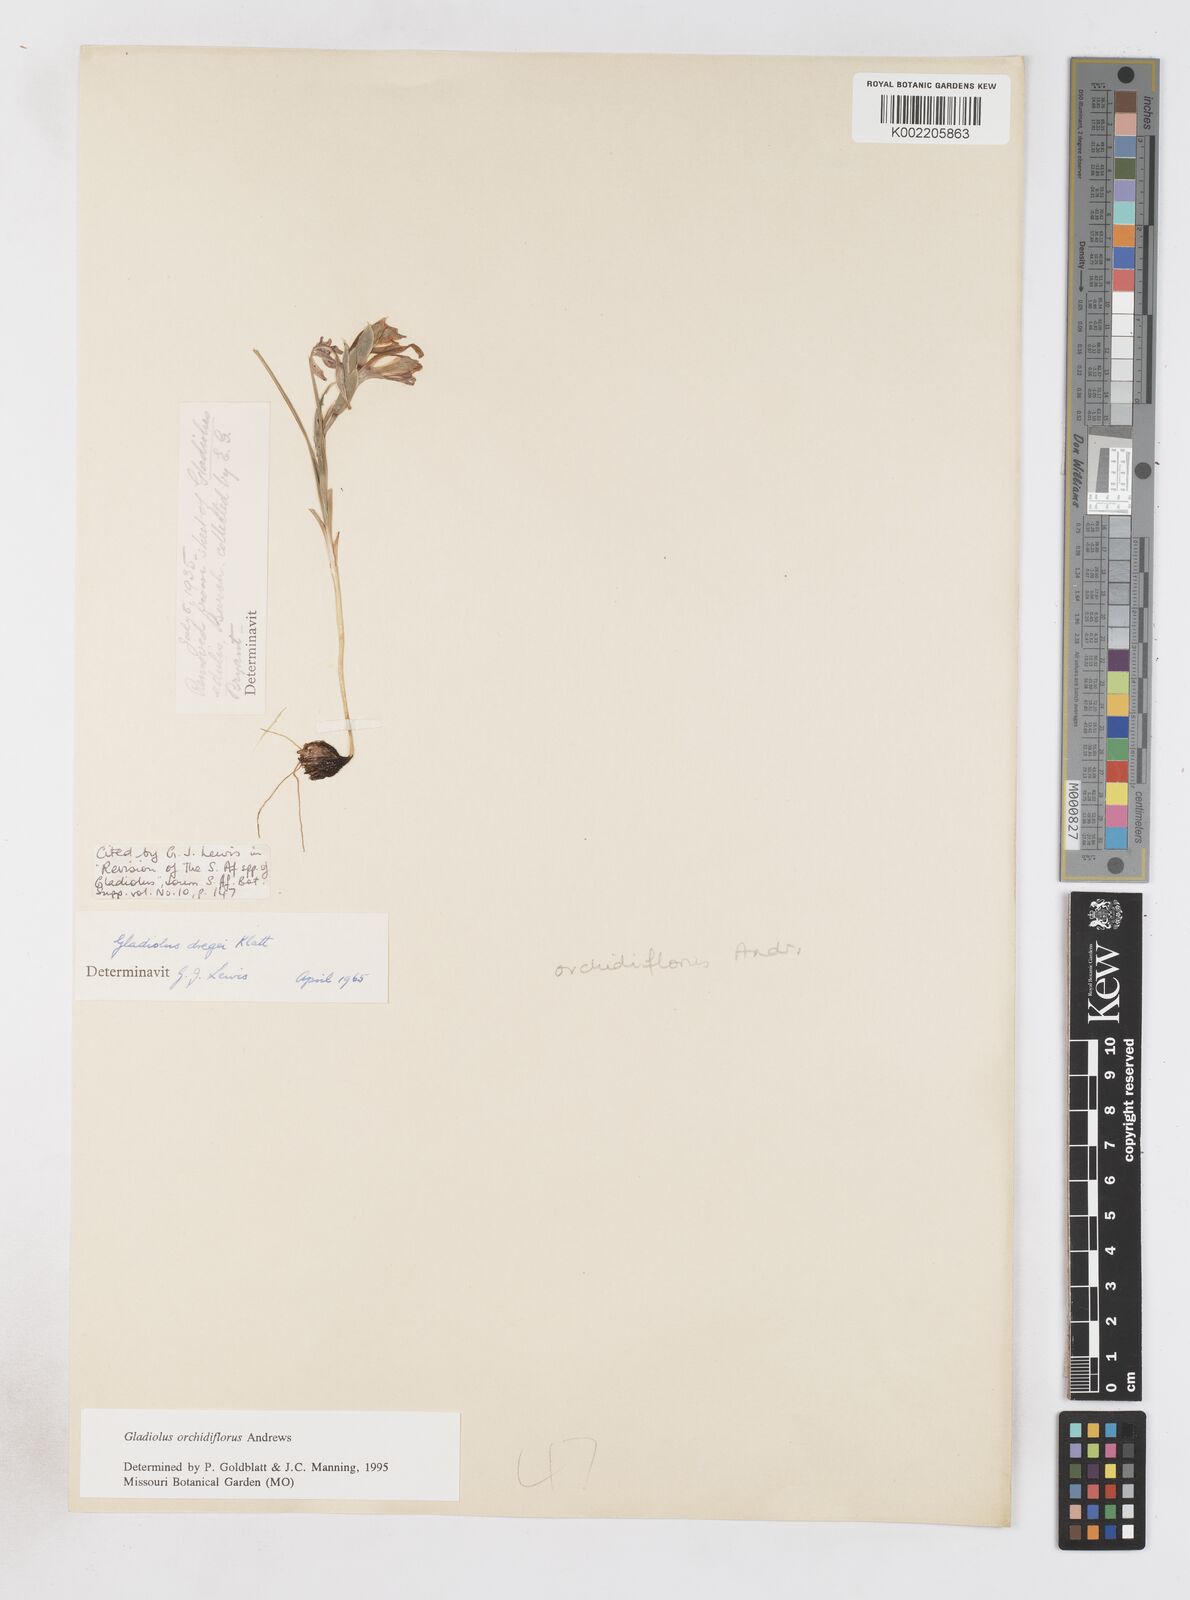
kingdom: Plantae
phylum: Tracheophyta
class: Liliopsida
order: Asparagales
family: Iridaceae
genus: Gladiolus
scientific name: Gladiolus orchidiflorus
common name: Gray kalkoentjie
